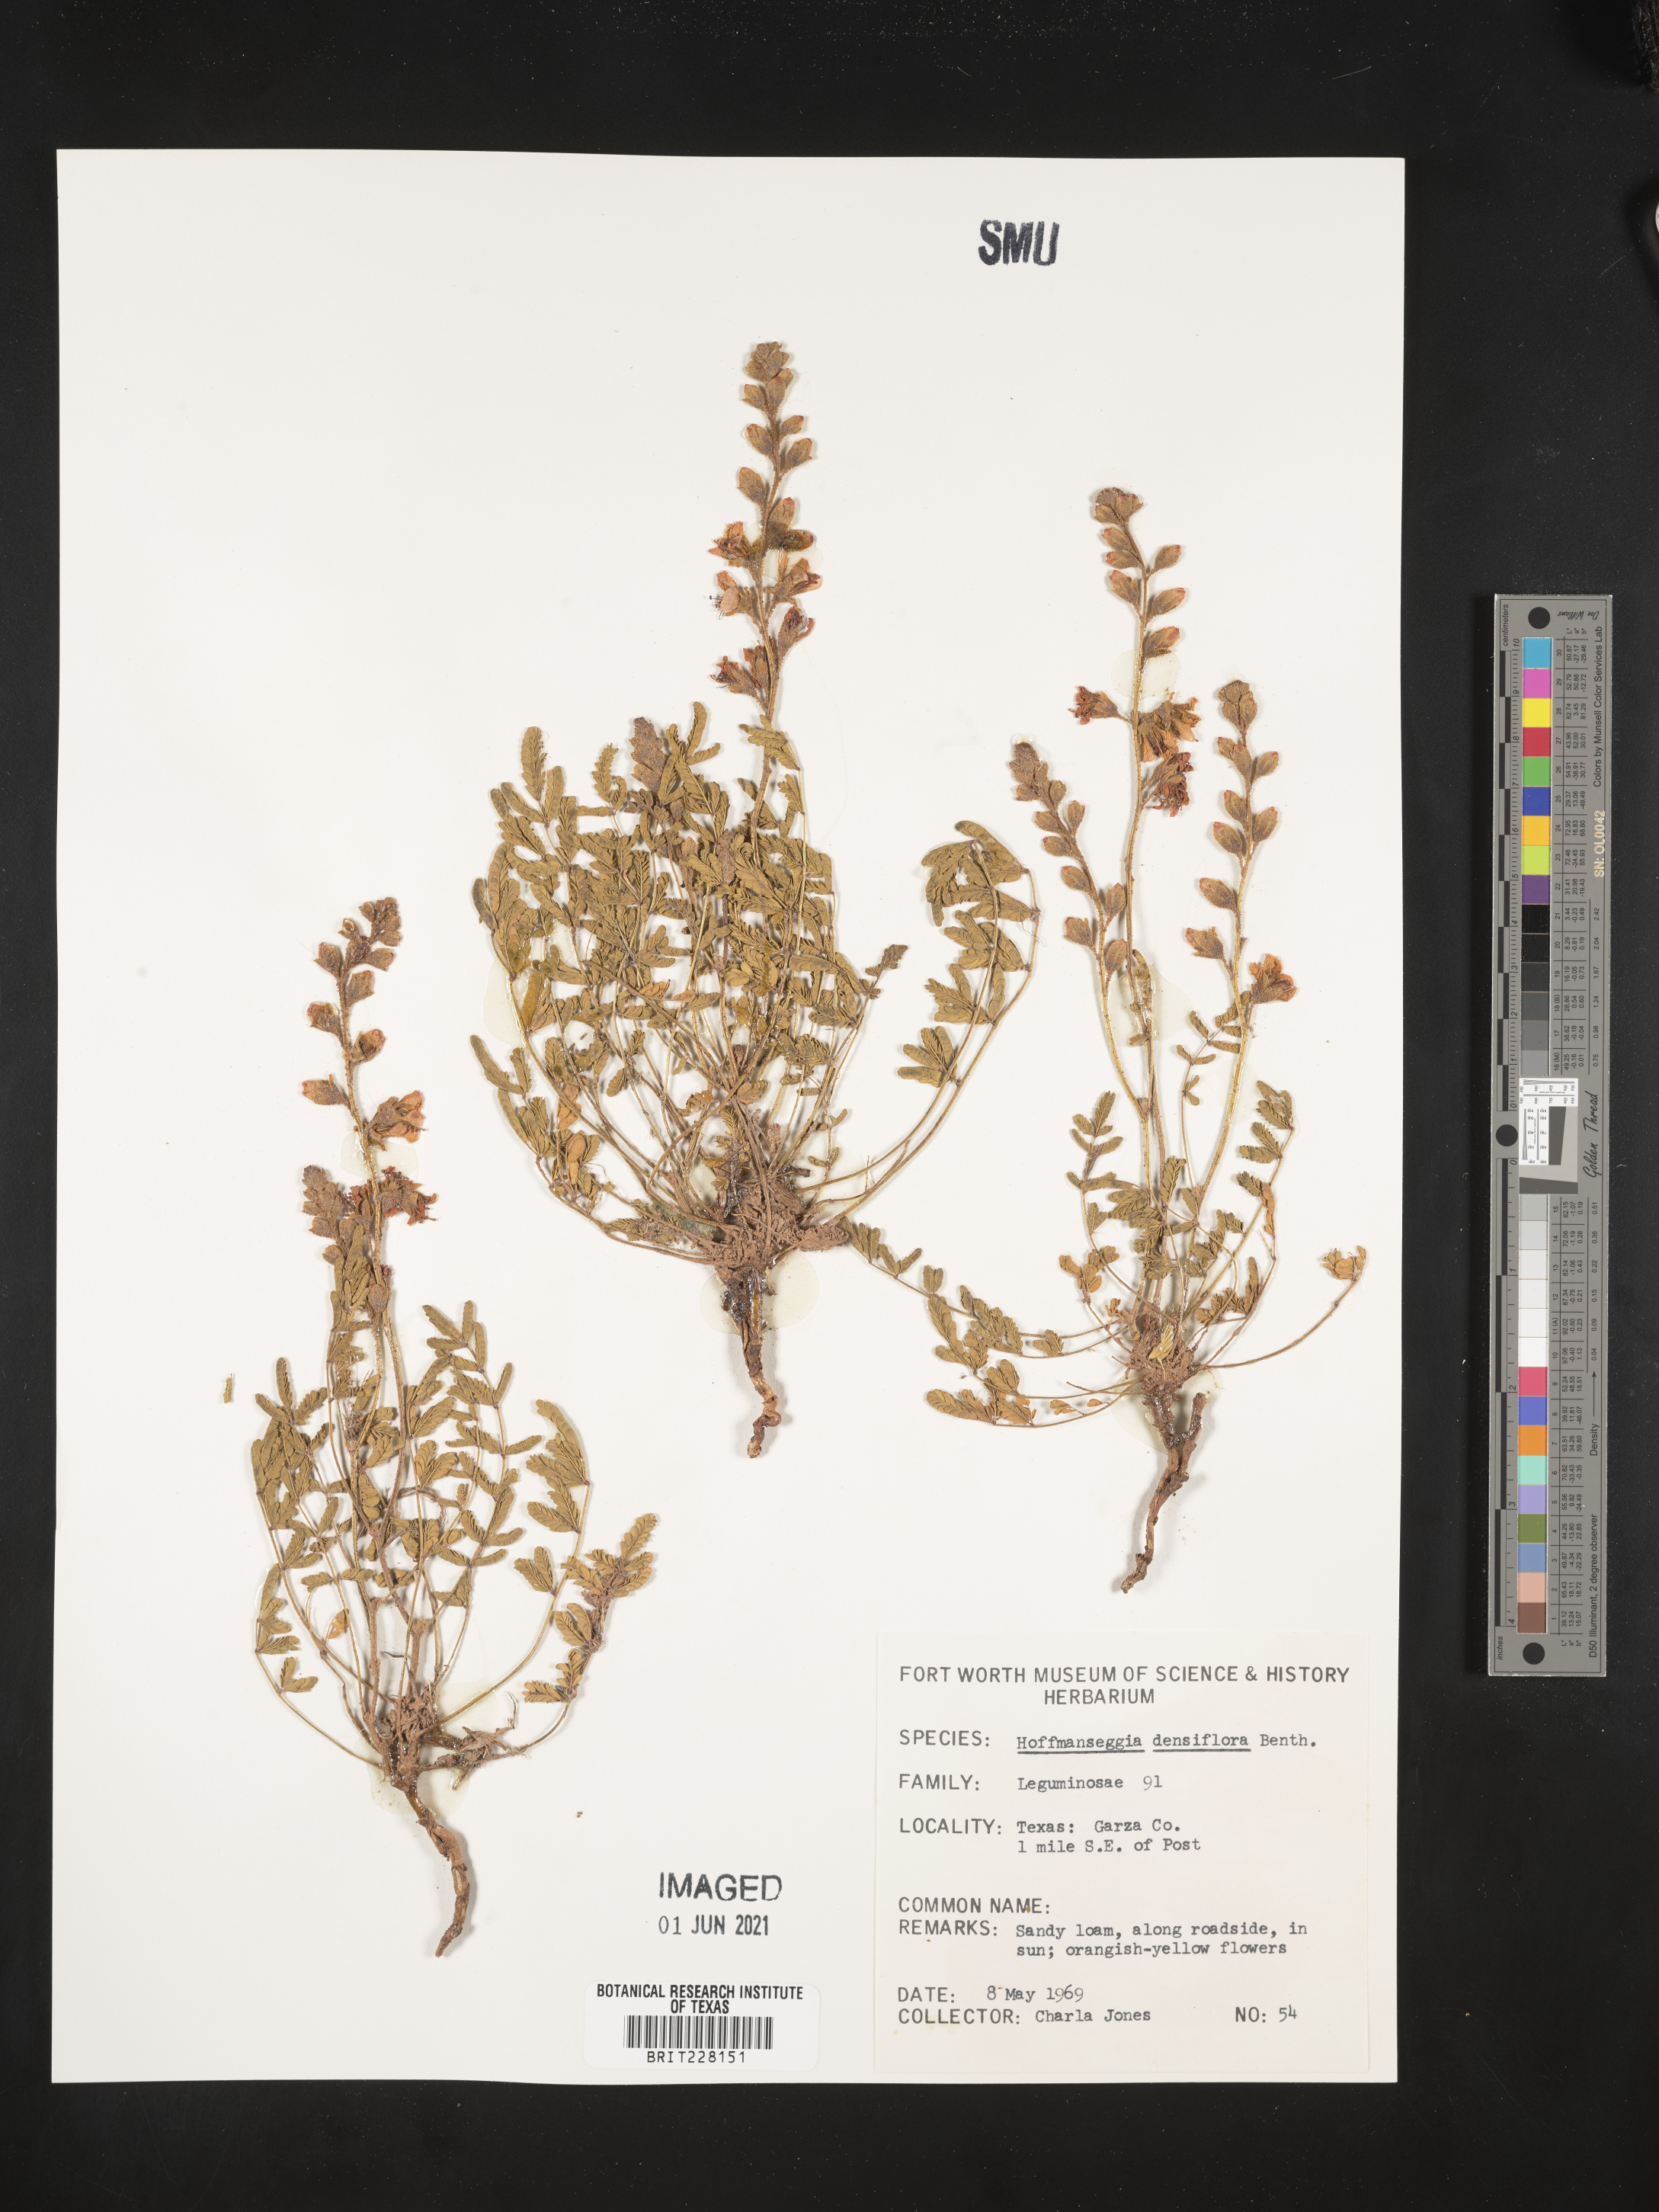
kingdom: Plantae
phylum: Tracheophyta
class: Magnoliopsida
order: Fabales
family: Fabaceae
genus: Hoffmannseggia
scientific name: Hoffmannseggia glauca
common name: Pignut
